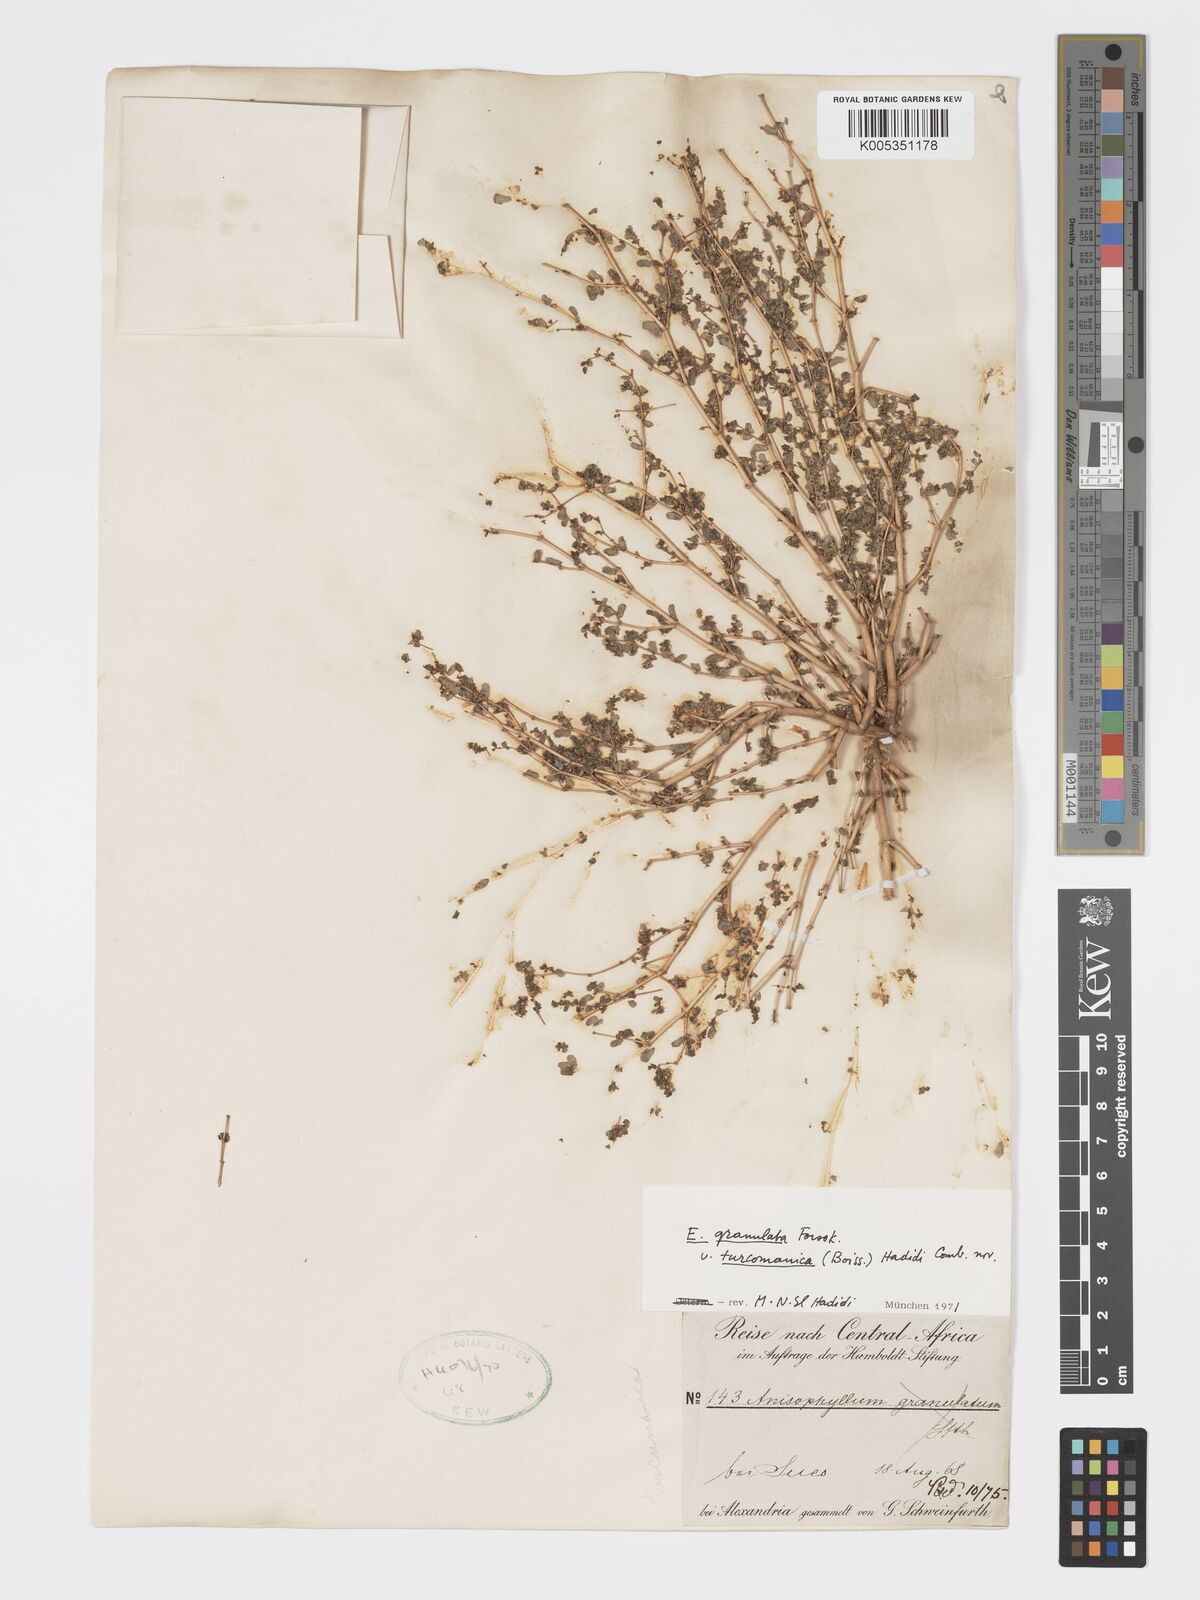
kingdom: Plantae
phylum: Tracheophyta
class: Magnoliopsida
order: Malpighiales
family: Euphorbiaceae
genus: Euphorbia
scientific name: Euphorbia granulata
